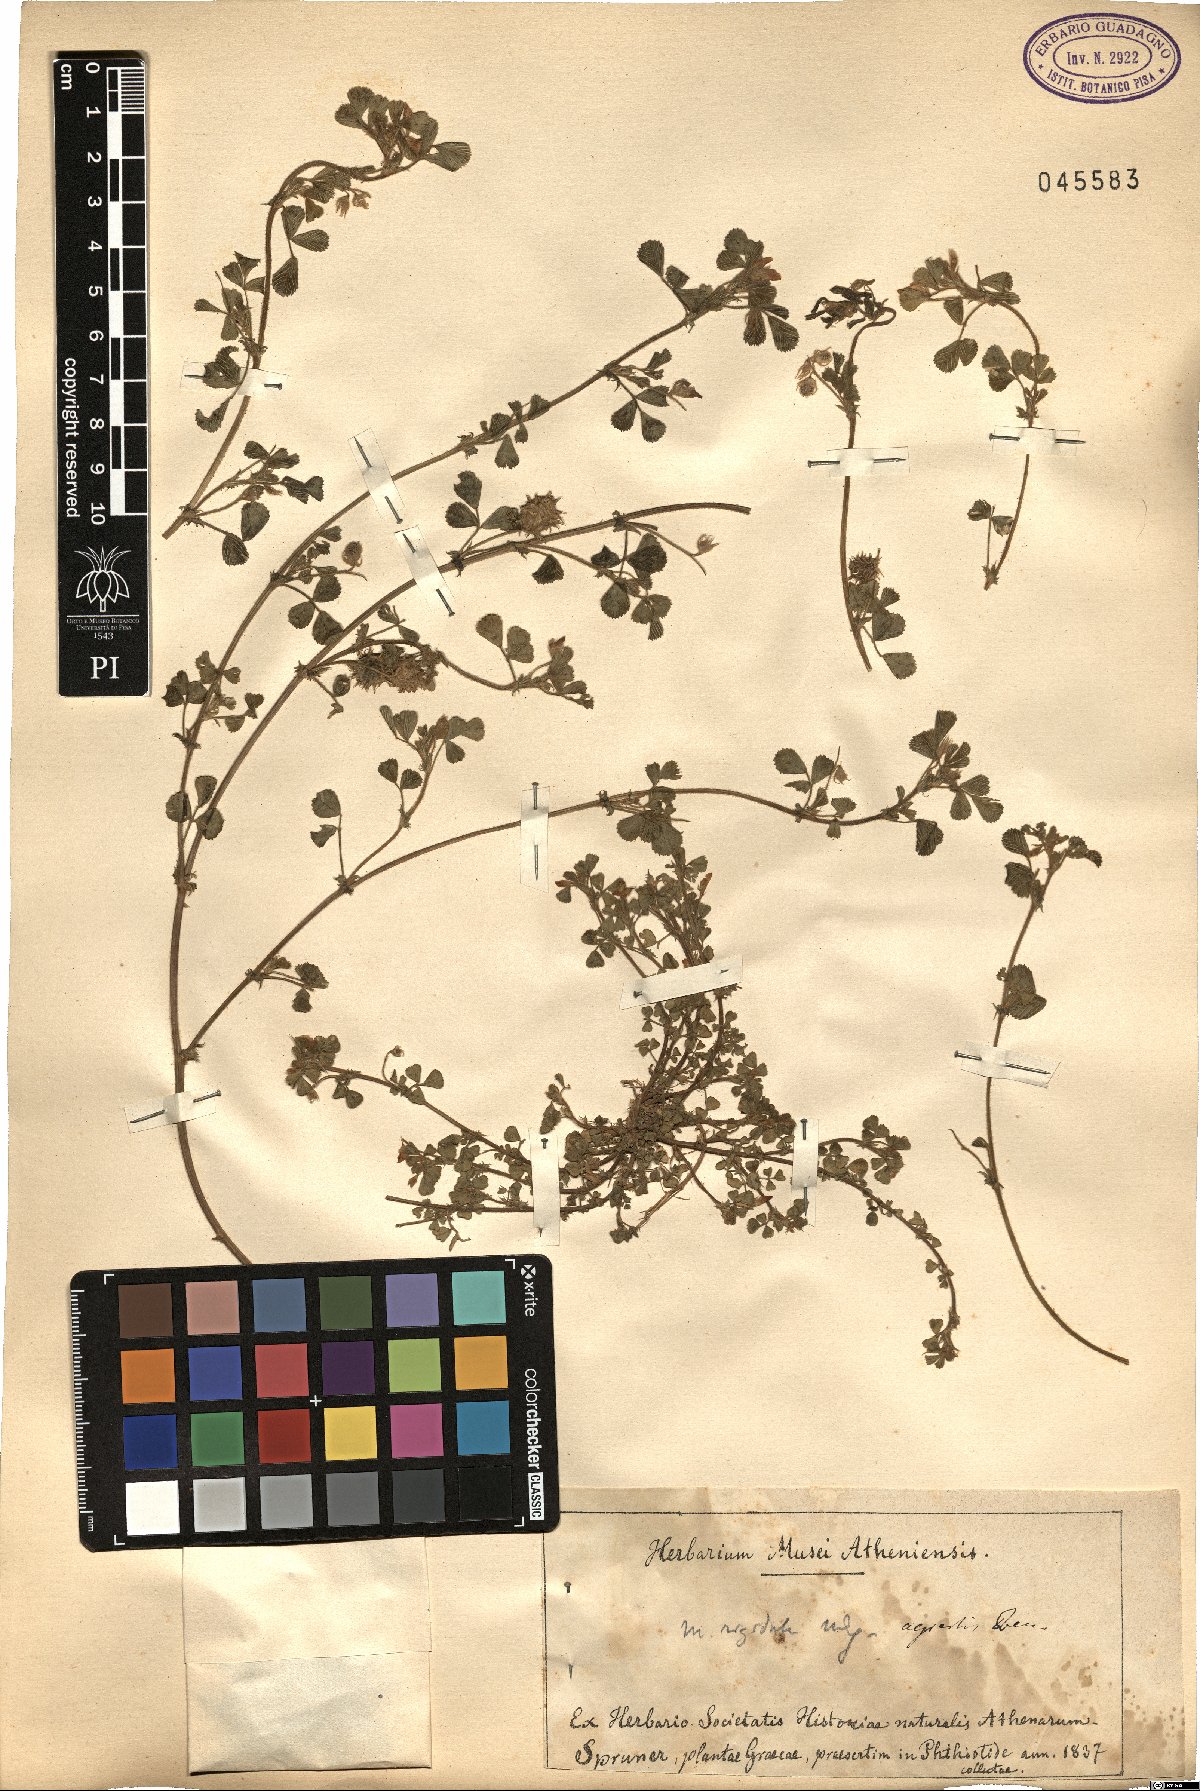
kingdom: Plantae
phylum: Tracheophyta
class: Magnoliopsida
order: Fabales
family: Fabaceae
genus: Medicago
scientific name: Medicago rigidula
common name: Tifton medic
